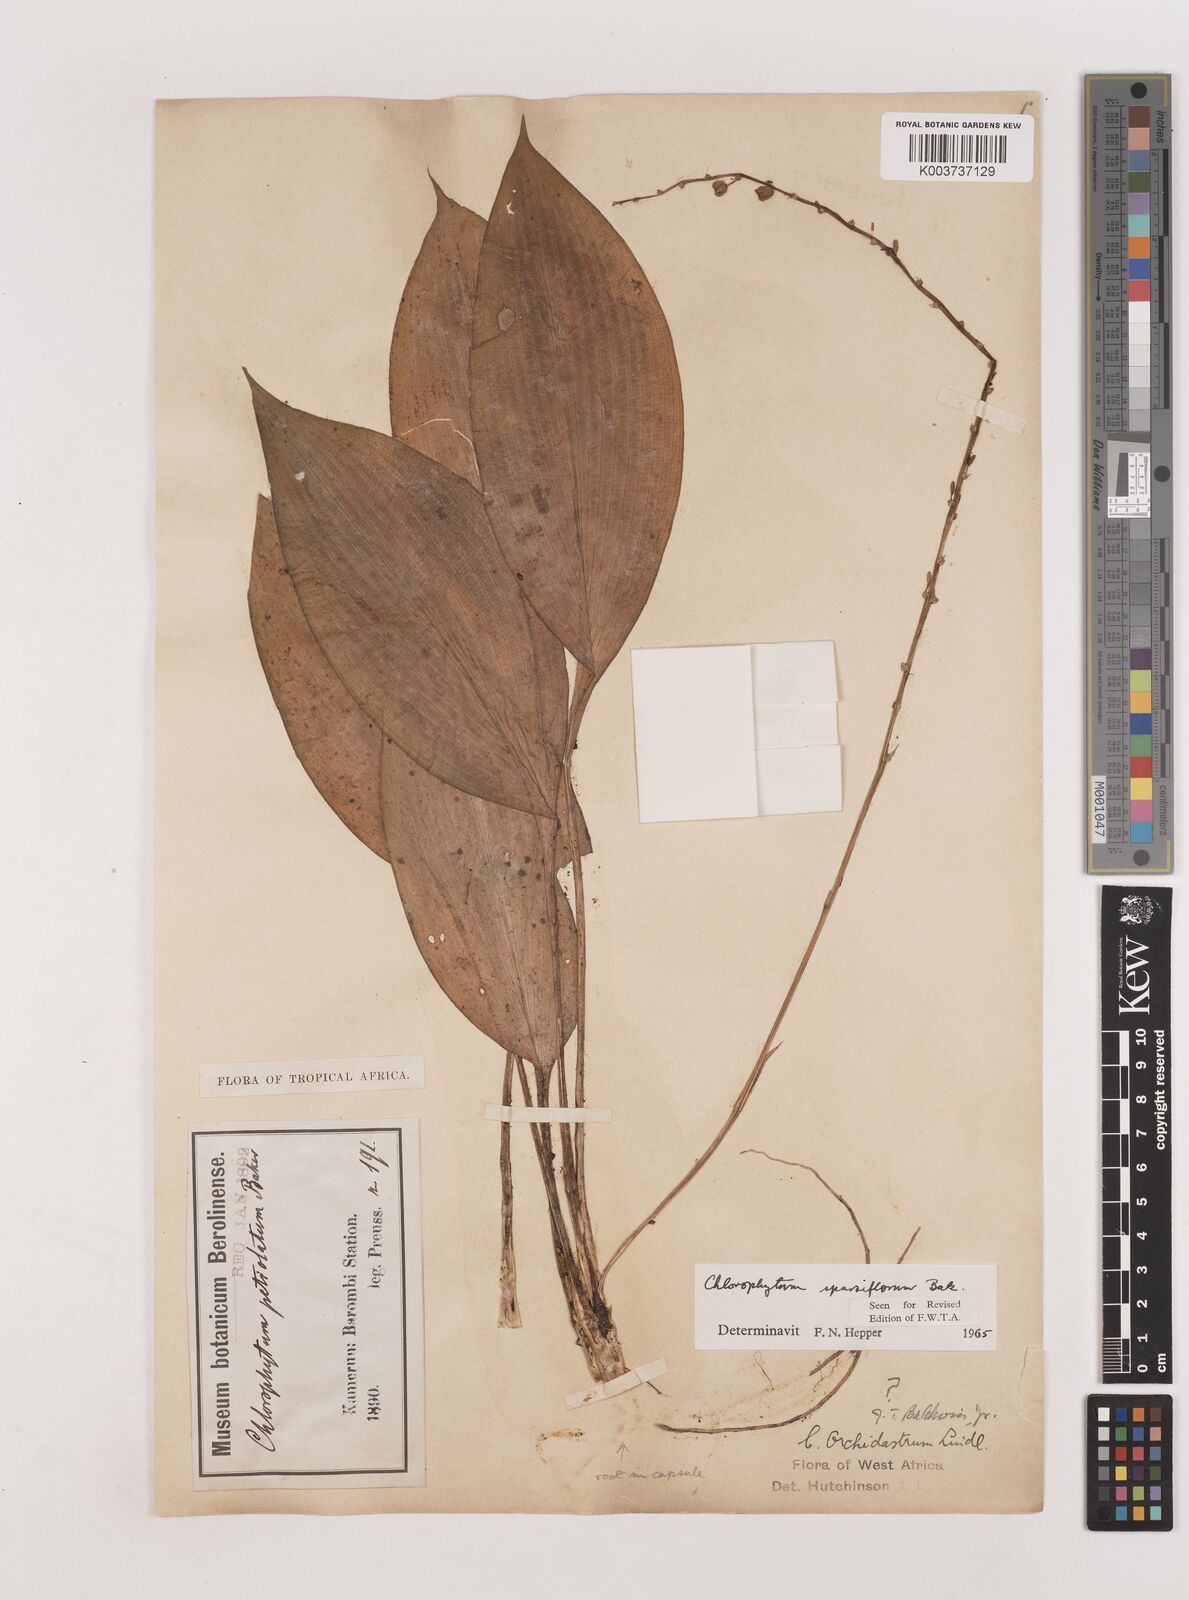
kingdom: Plantae
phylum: Tracheophyta
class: Liliopsida
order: Asparagales
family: Asparagaceae
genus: Chlorophytum
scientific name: Chlorophytum sparsiflorum
